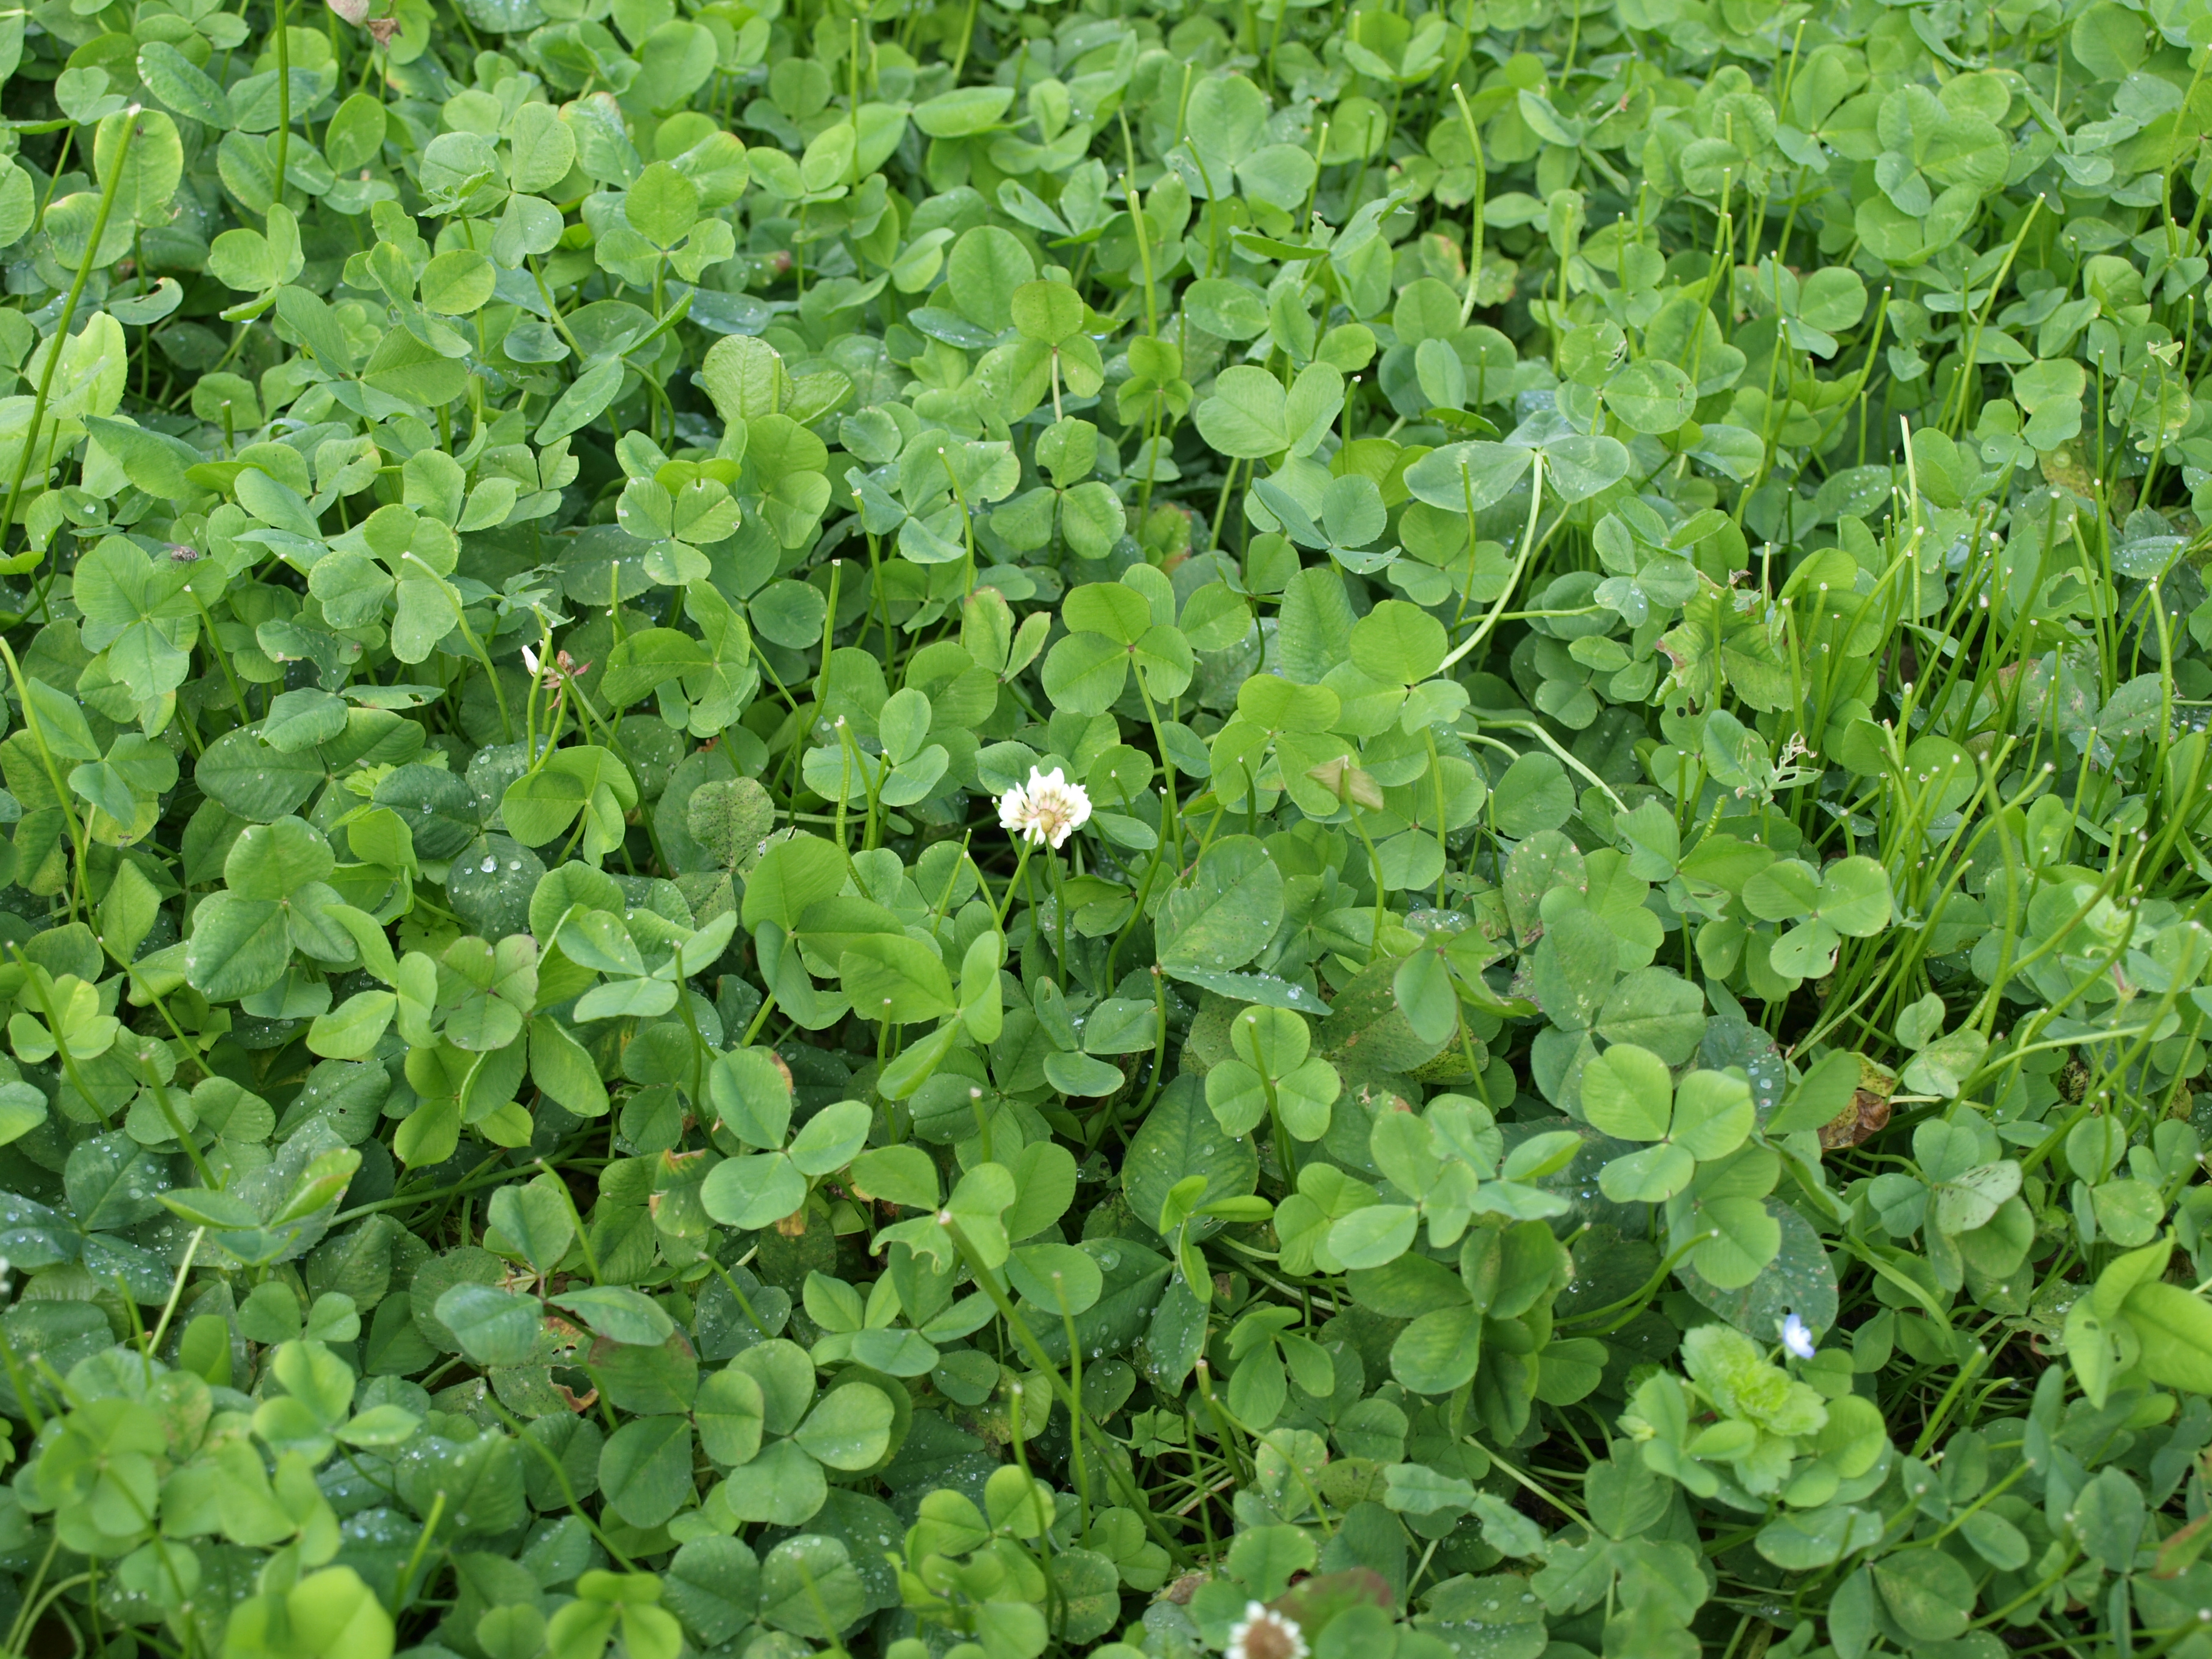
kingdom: Plantae
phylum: Tracheophyta
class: Magnoliopsida
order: Fabales
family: Fabaceae
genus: Trifolium
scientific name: Trifolium repens
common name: White clover
